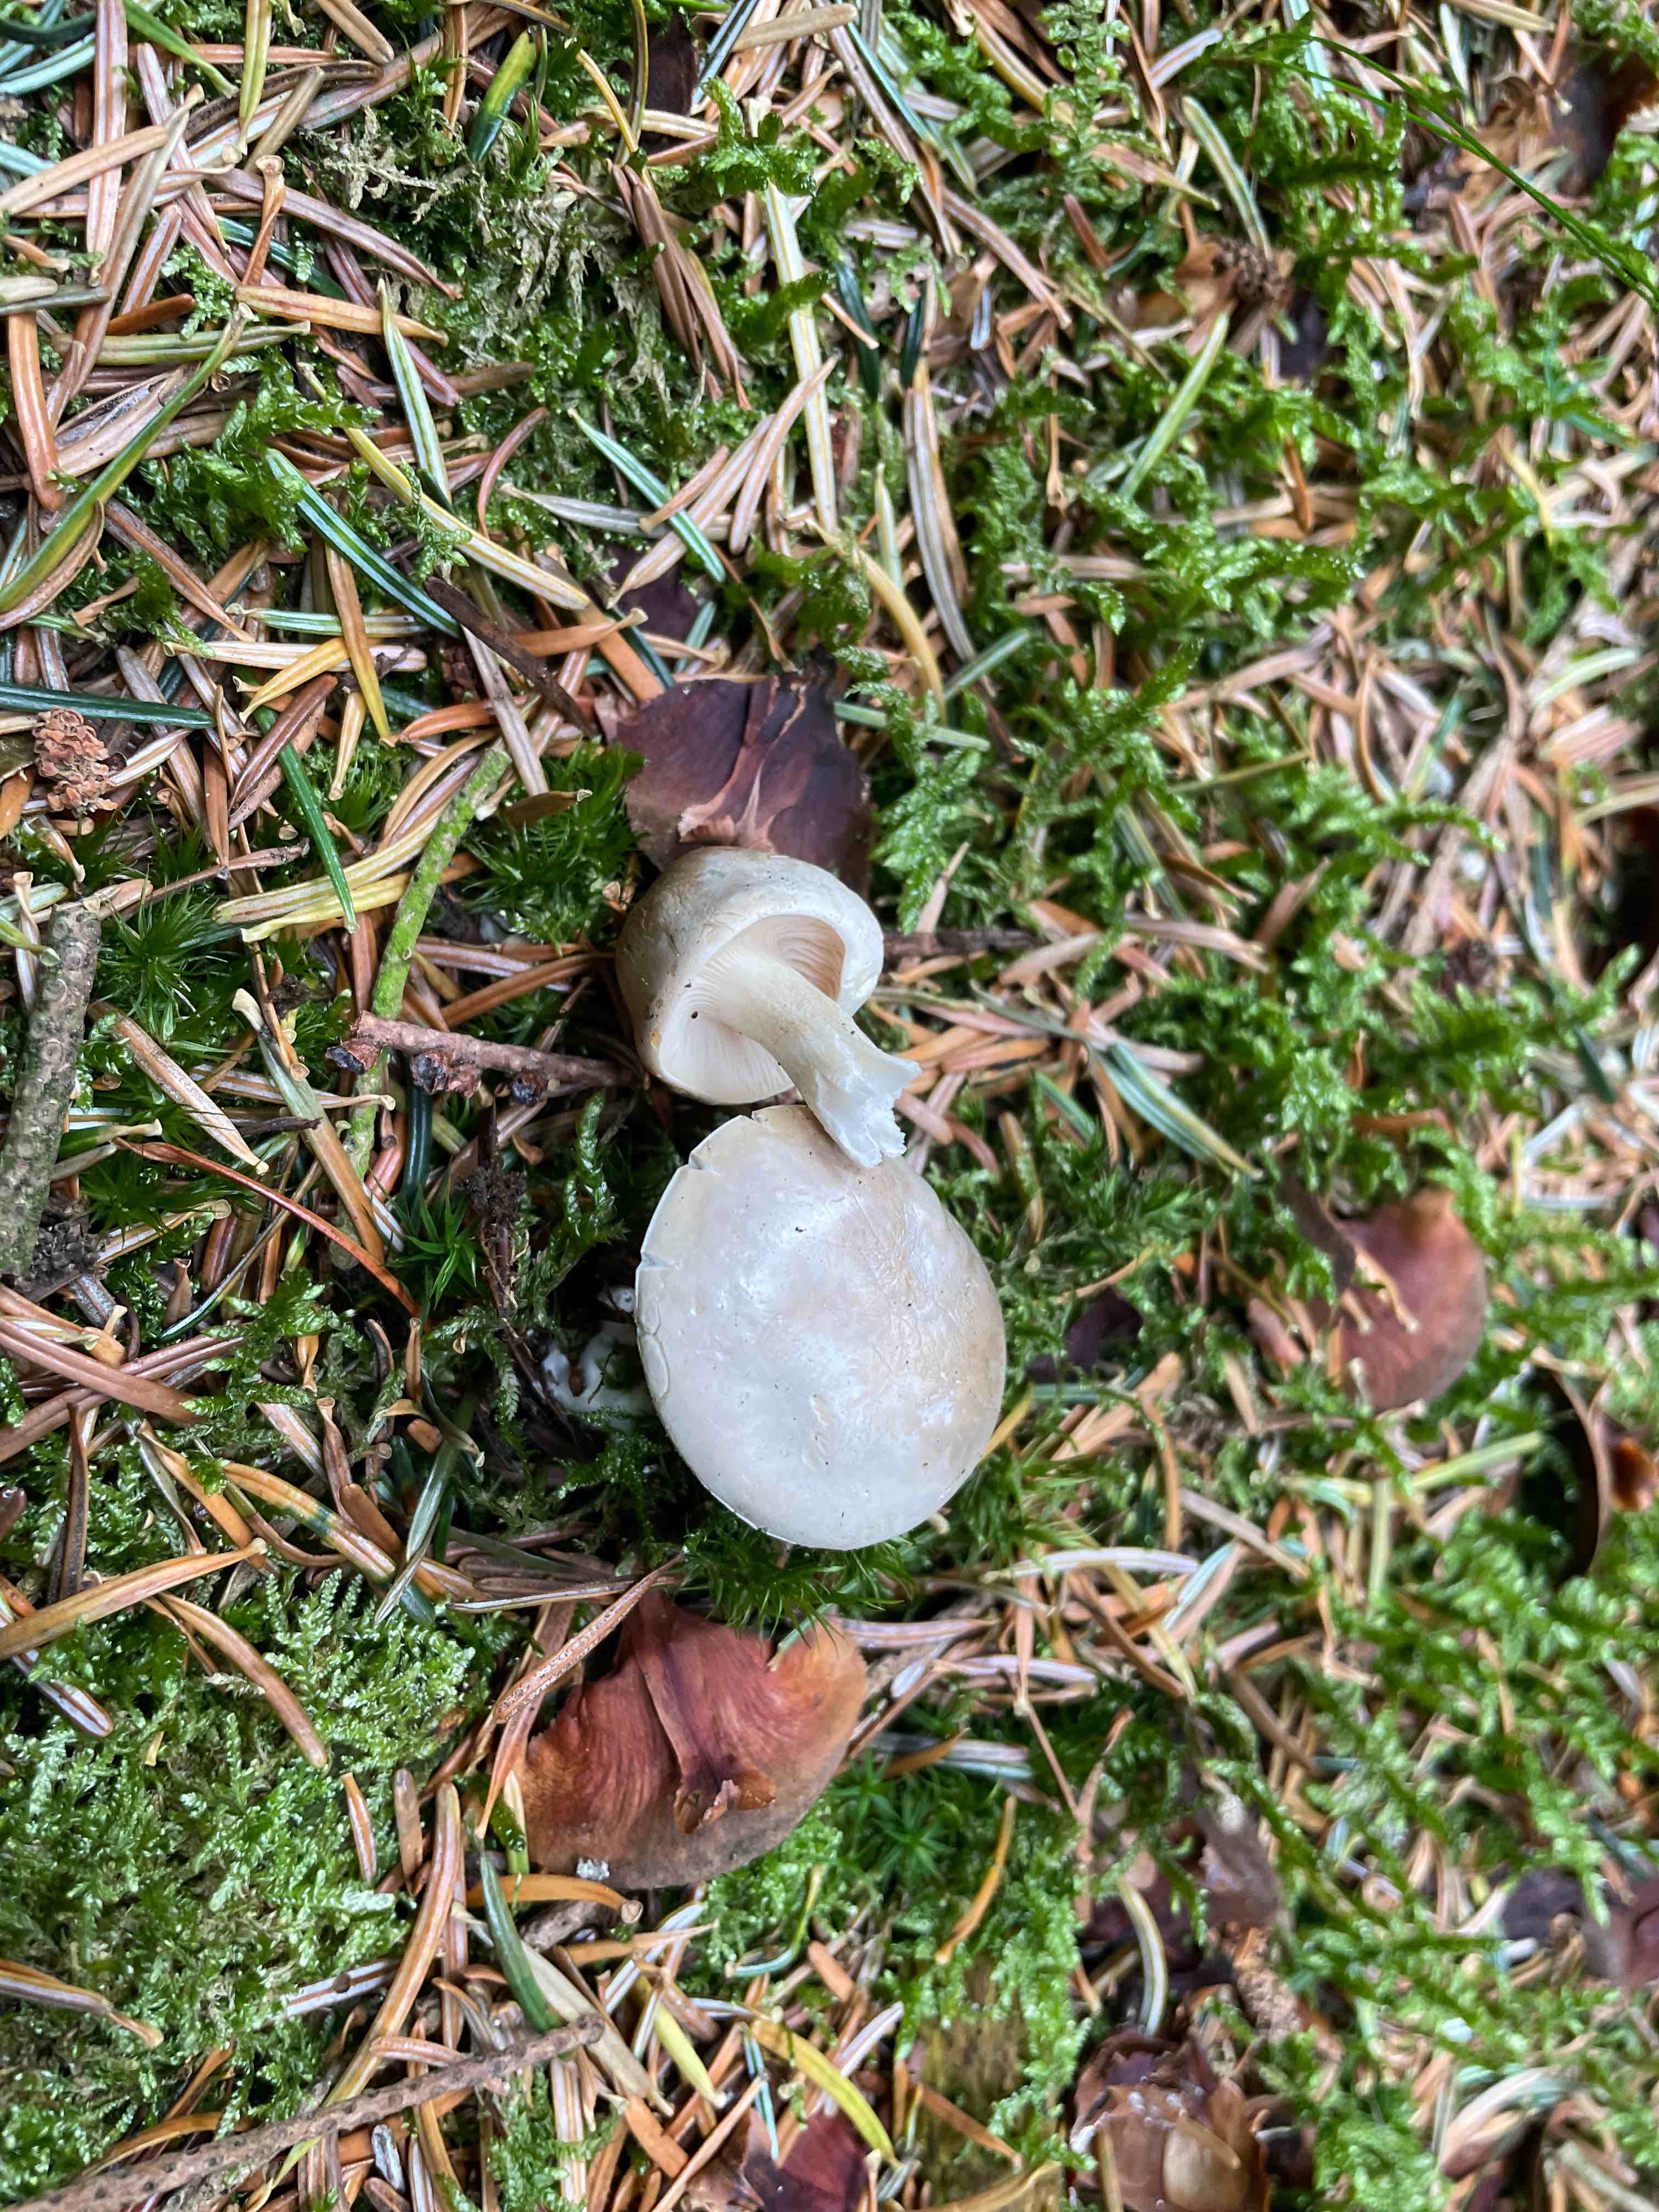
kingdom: Fungi
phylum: Basidiomycota
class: Agaricomycetes
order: Agaricales
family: Entolomataceae
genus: Clitopilus
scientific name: Clitopilus prunulus
